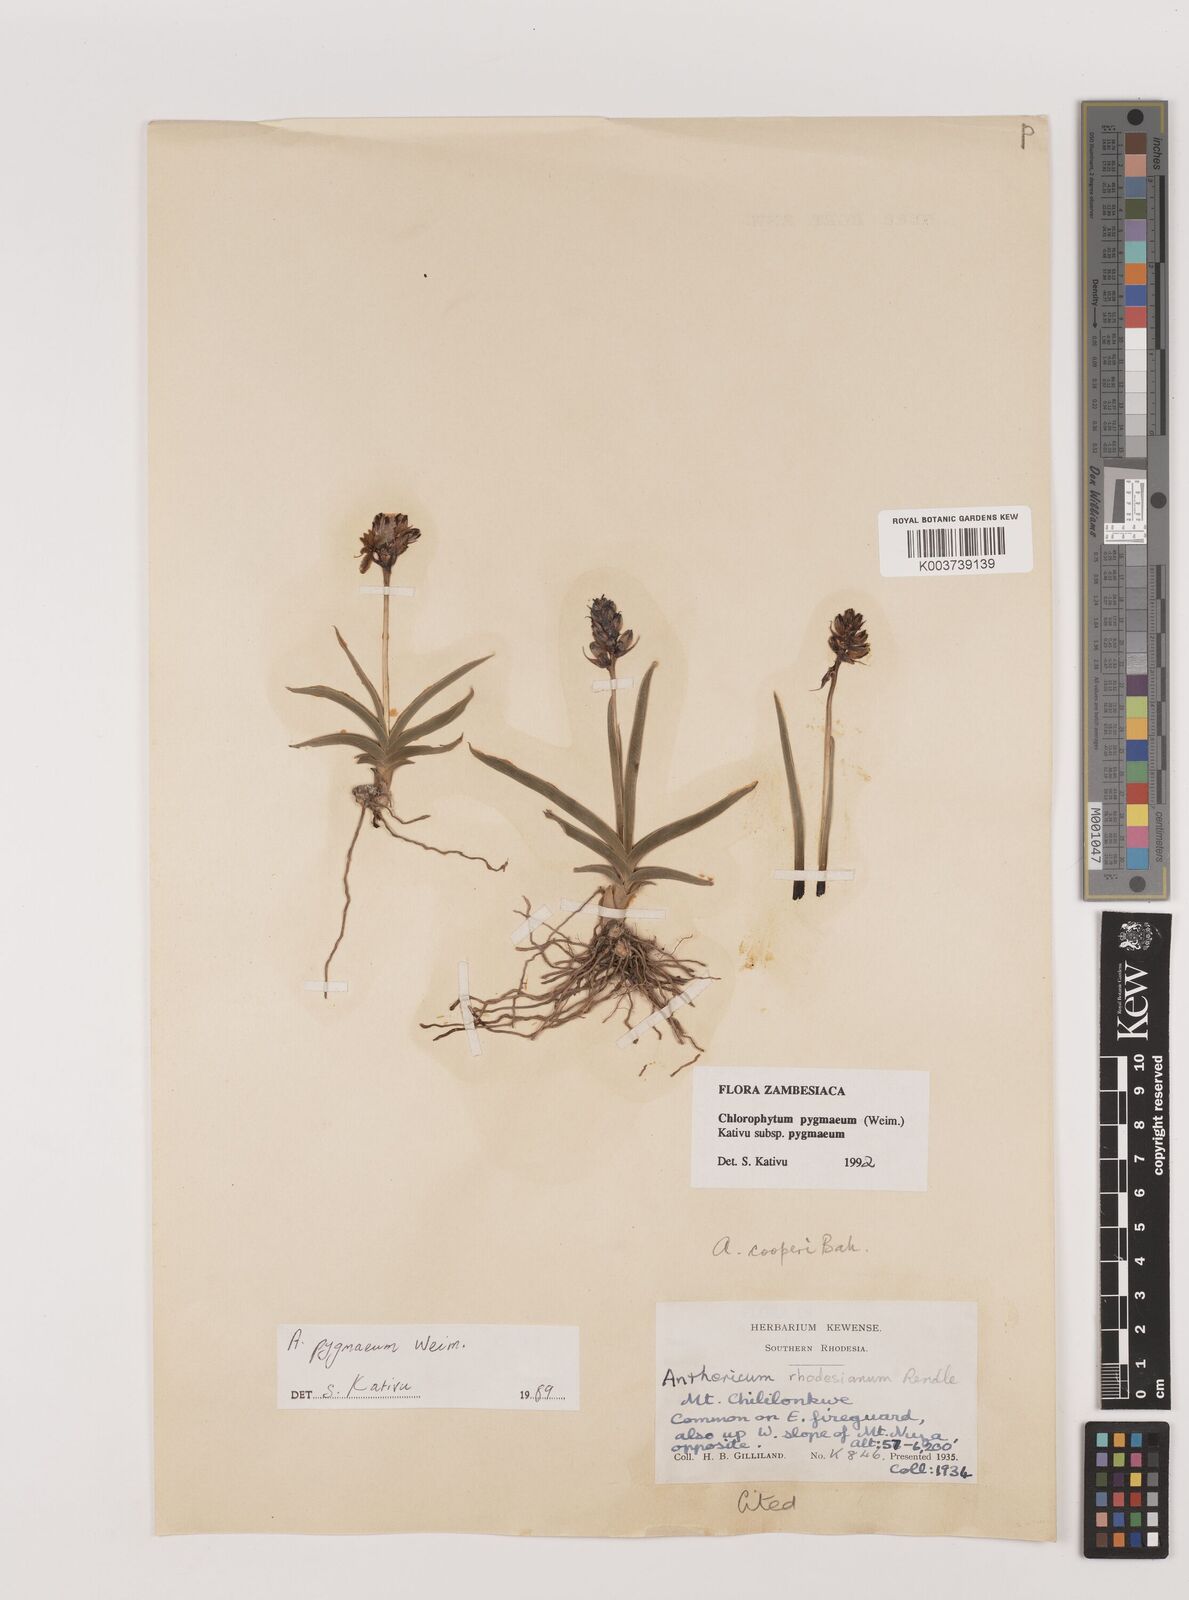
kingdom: Plantae
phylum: Tracheophyta
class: Liliopsida
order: Asparagales
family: Asparagaceae
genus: Chlorophytum
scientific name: Chlorophytum pygmaeum
